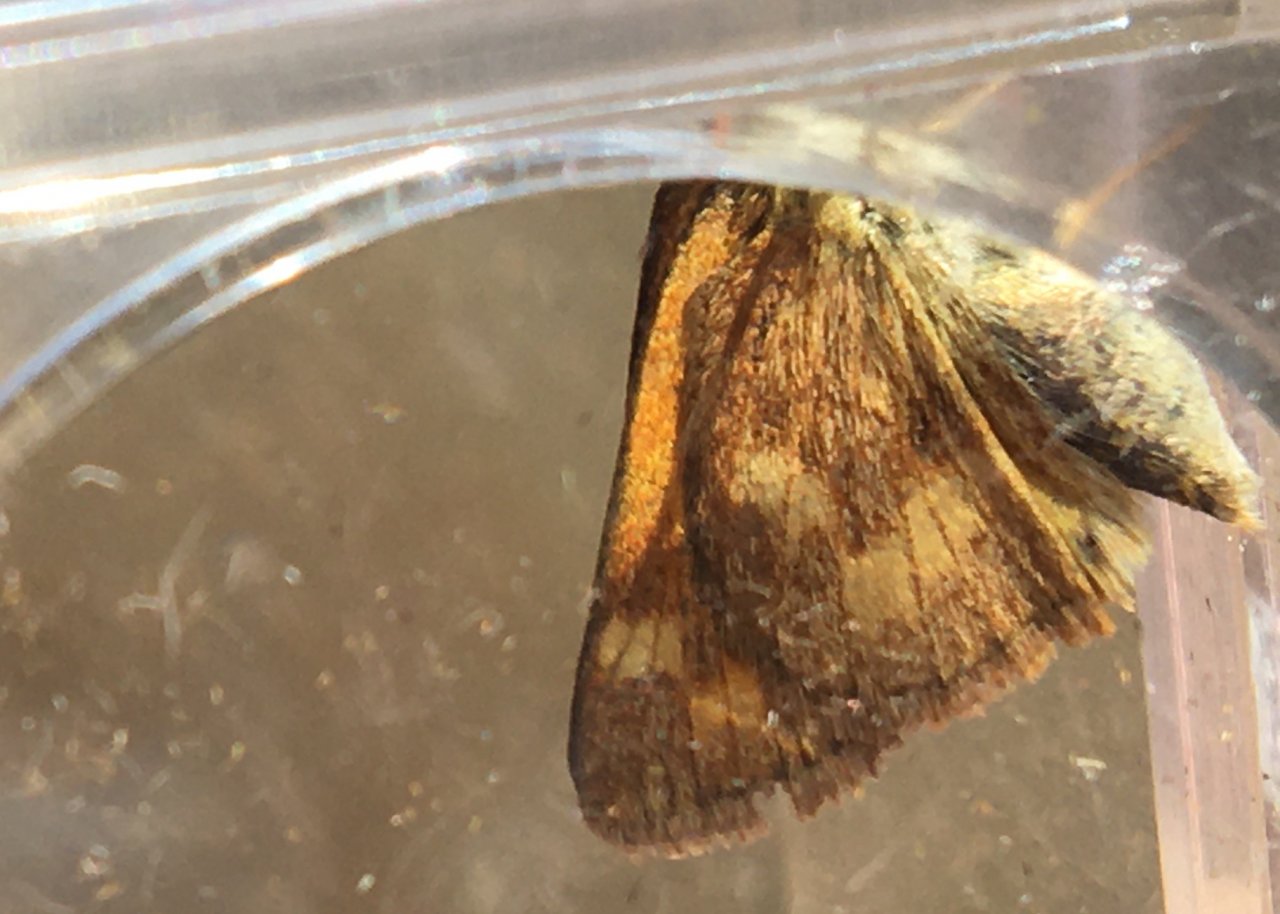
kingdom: Animalia
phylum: Arthropoda
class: Insecta
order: Lepidoptera
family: Hesperiidae
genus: Ochlodes
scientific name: Ochlodes sylvanoides
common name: Woodland Skipper
